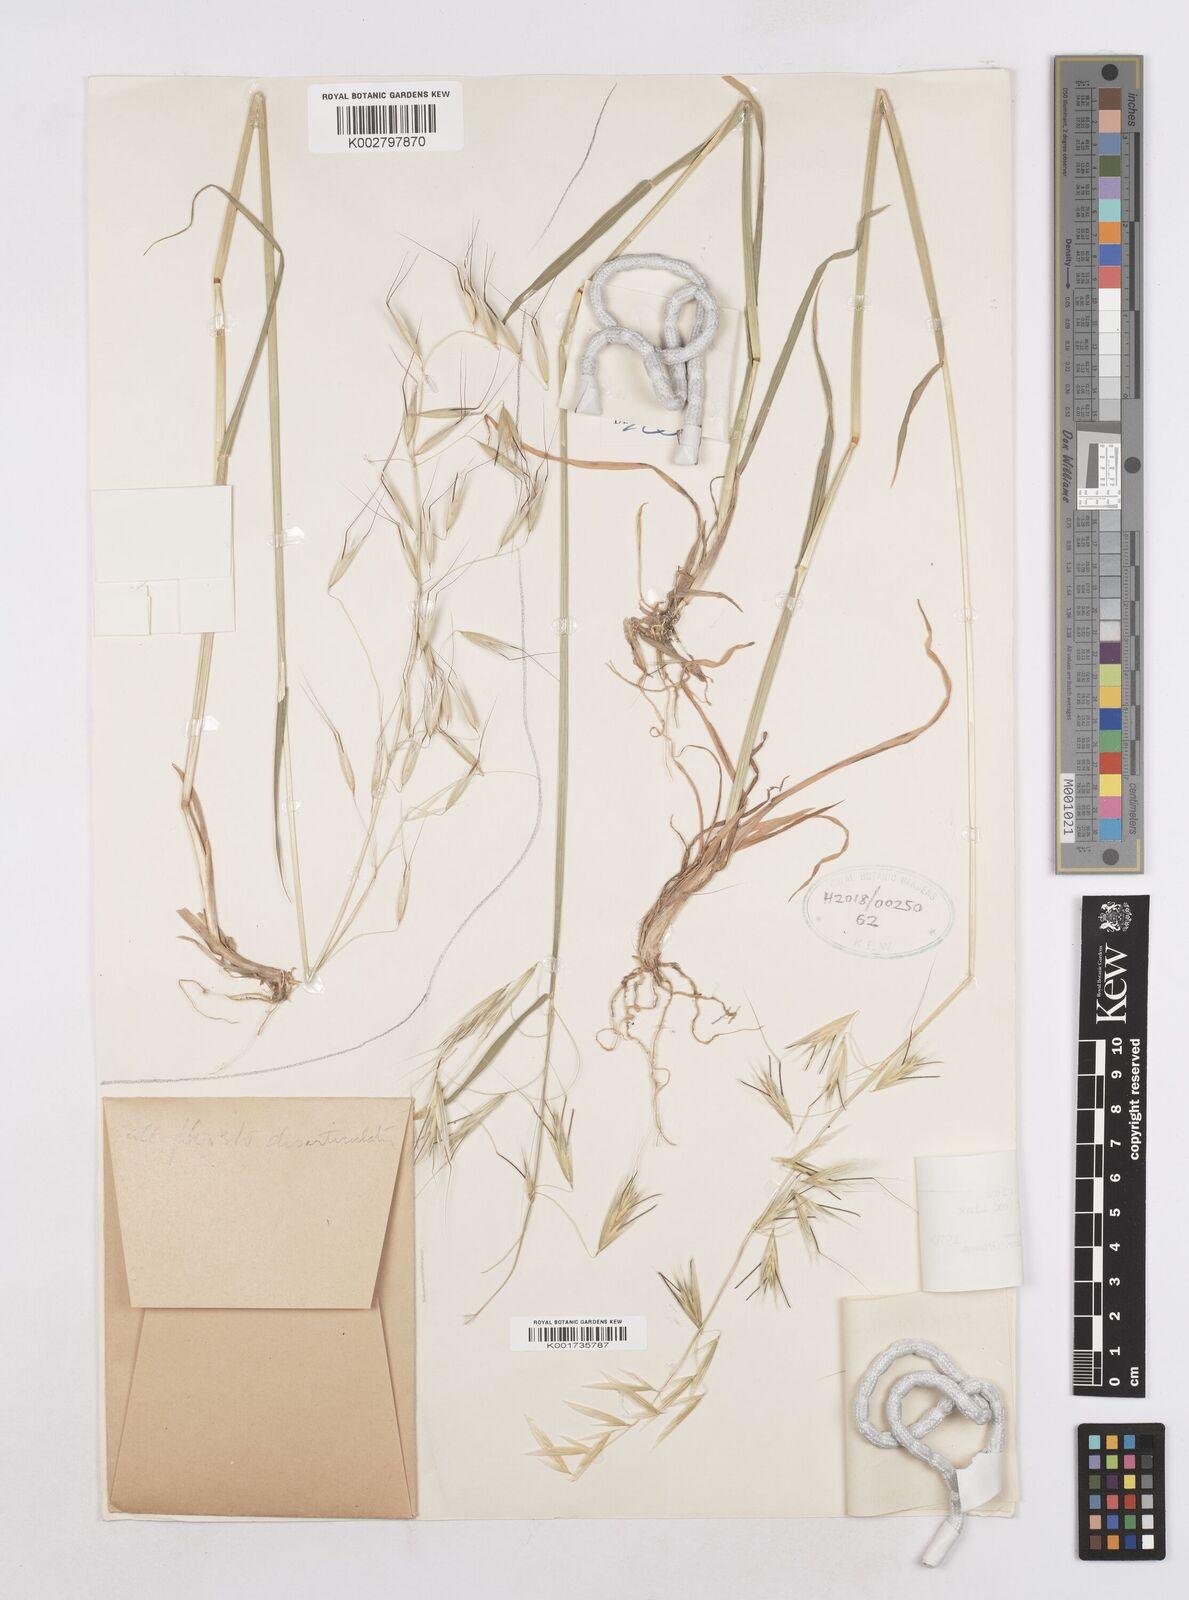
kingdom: Plantae
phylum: Tracheophyta
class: Liliopsida
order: Poales
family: Poaceae
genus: Avena
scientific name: Avena clauda
